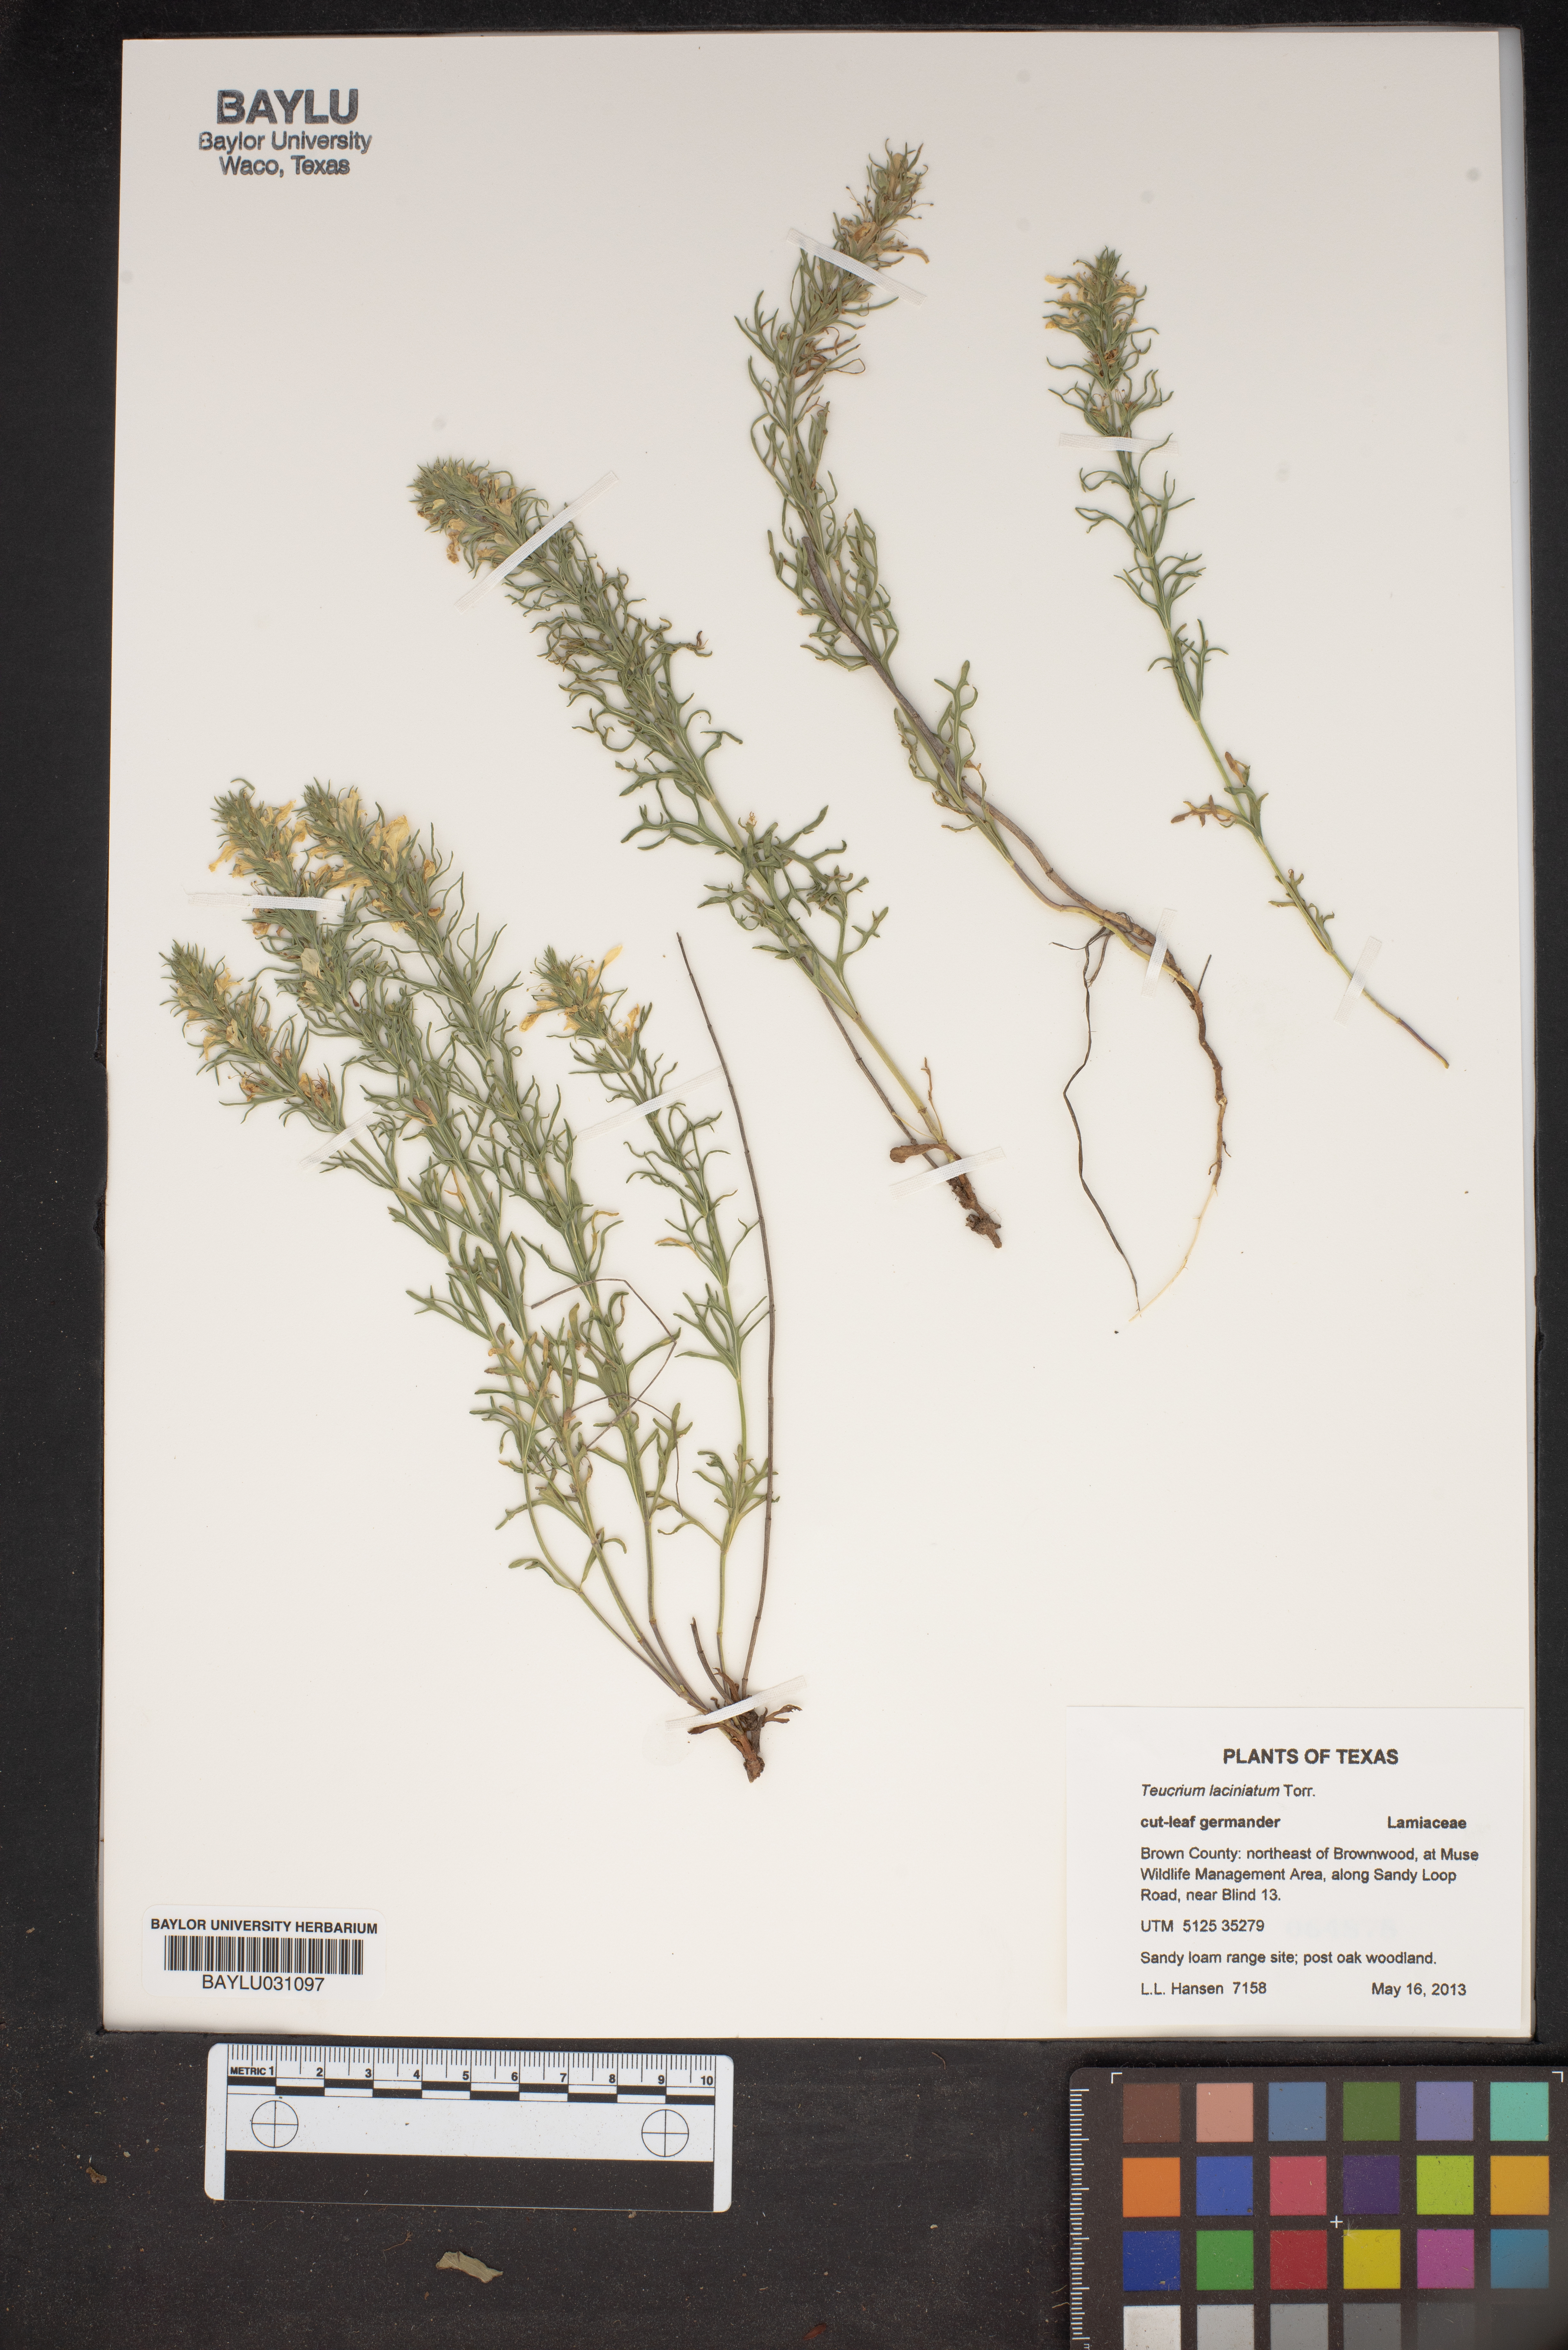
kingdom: Plantae
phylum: Tracheophyta
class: Magnoliopsida
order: Lamiales
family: Lamiaceae
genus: Teucrium
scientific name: Teucrium laciniatum
